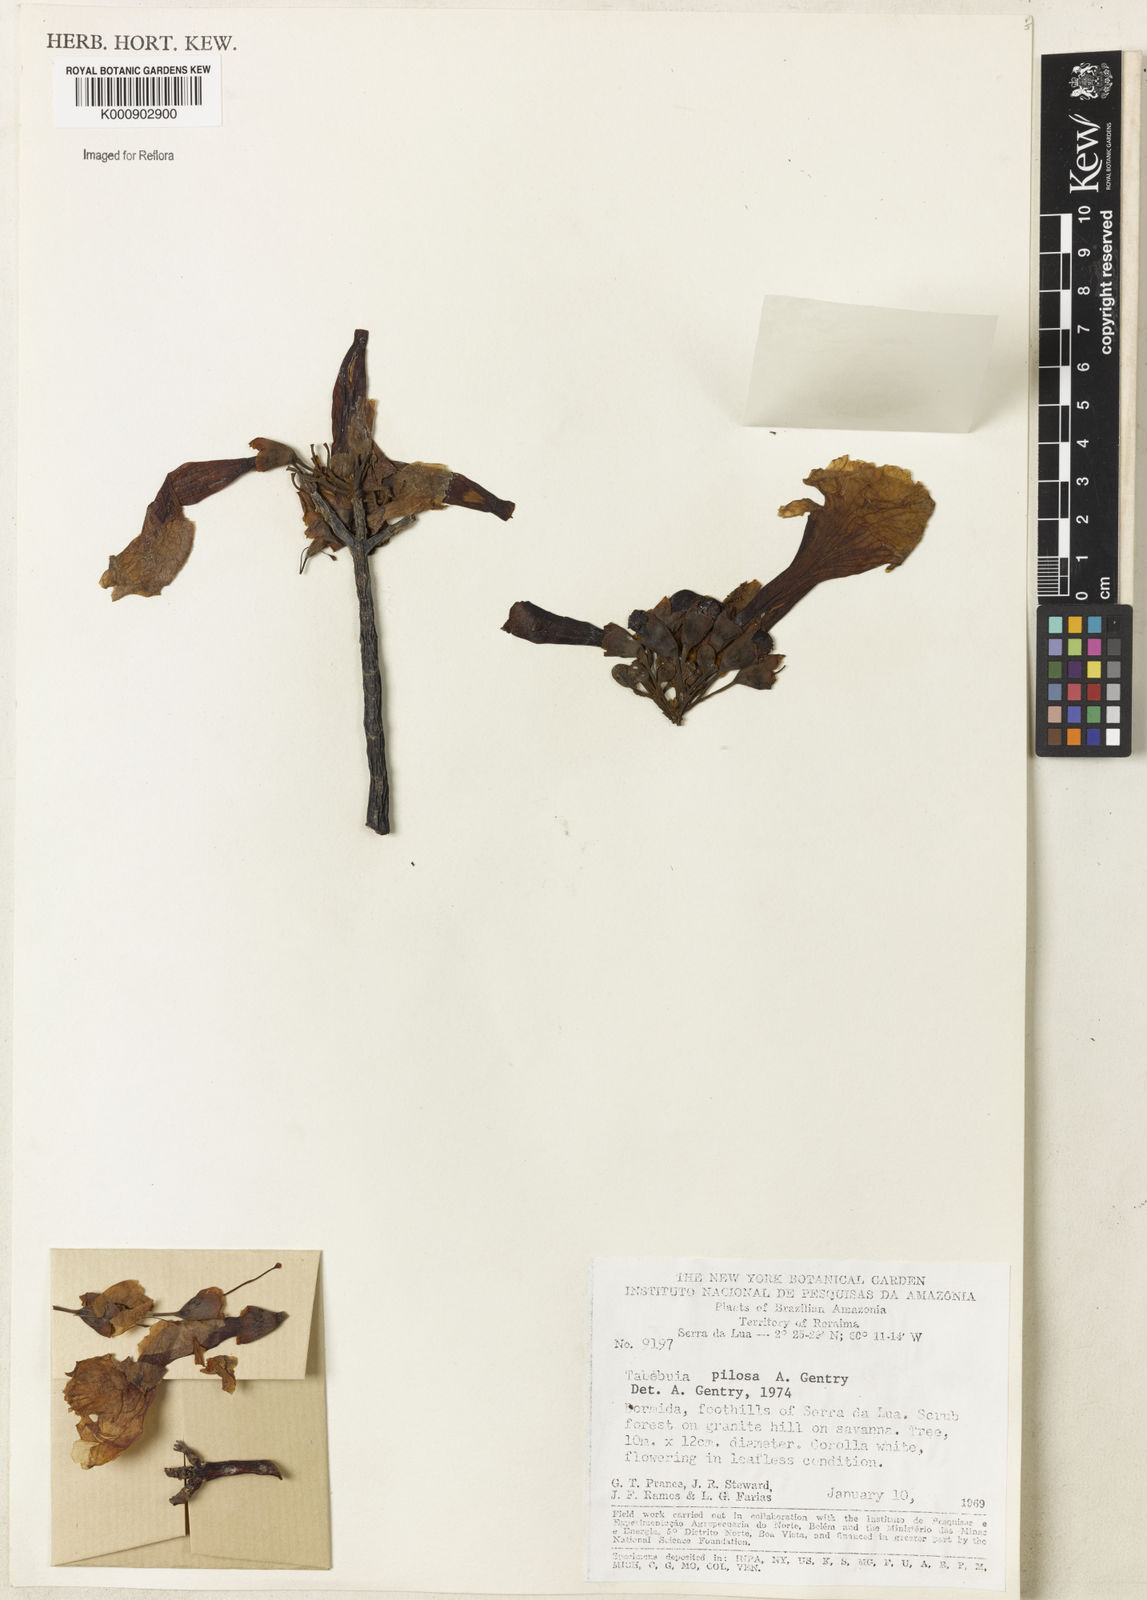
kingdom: Plantae
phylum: Tracheophyta
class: Magnoliopsida
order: Lamiales
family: Bignoniaceae
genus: Tabebuia
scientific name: Tabebuia pilosa
